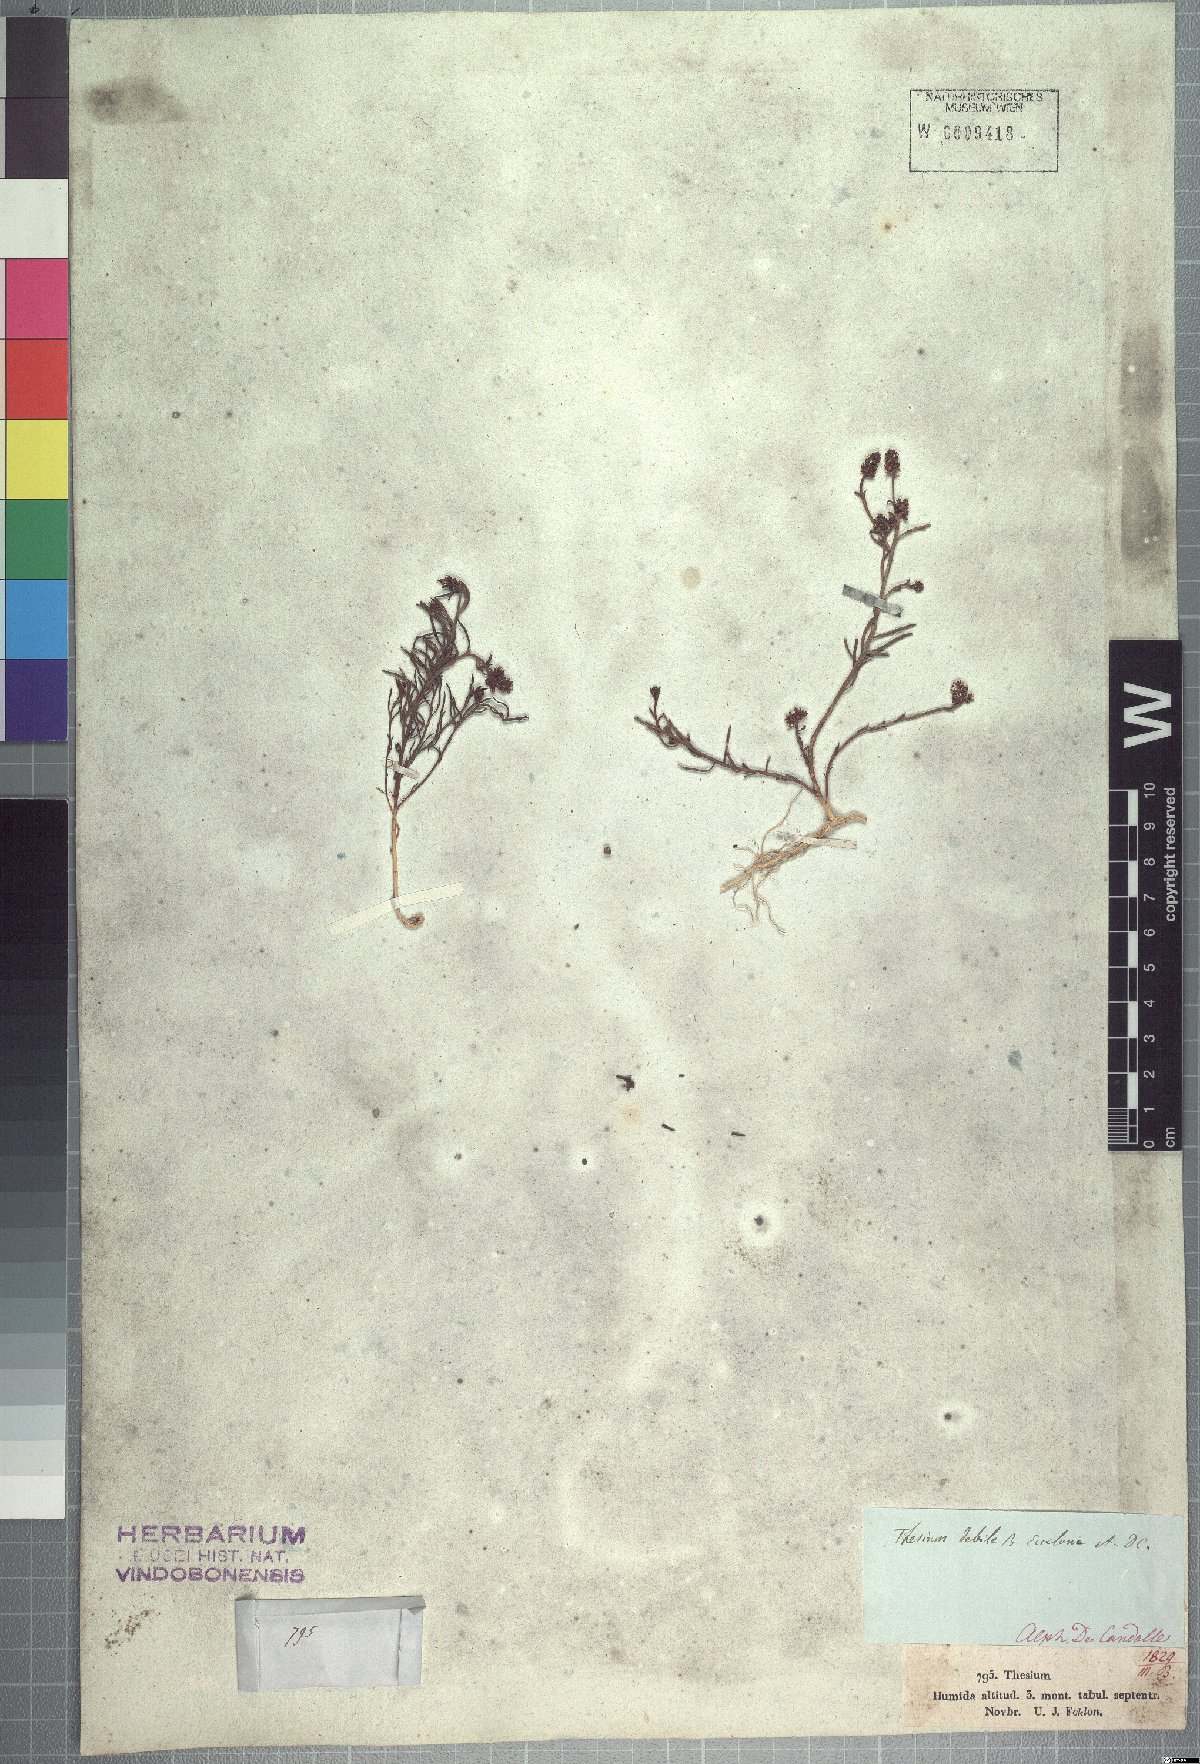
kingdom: Plantae
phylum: Tracheophyta
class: Magnoliopsida
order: Santalales
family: Thesiaceae
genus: Thesium
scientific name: Thesium frisea
